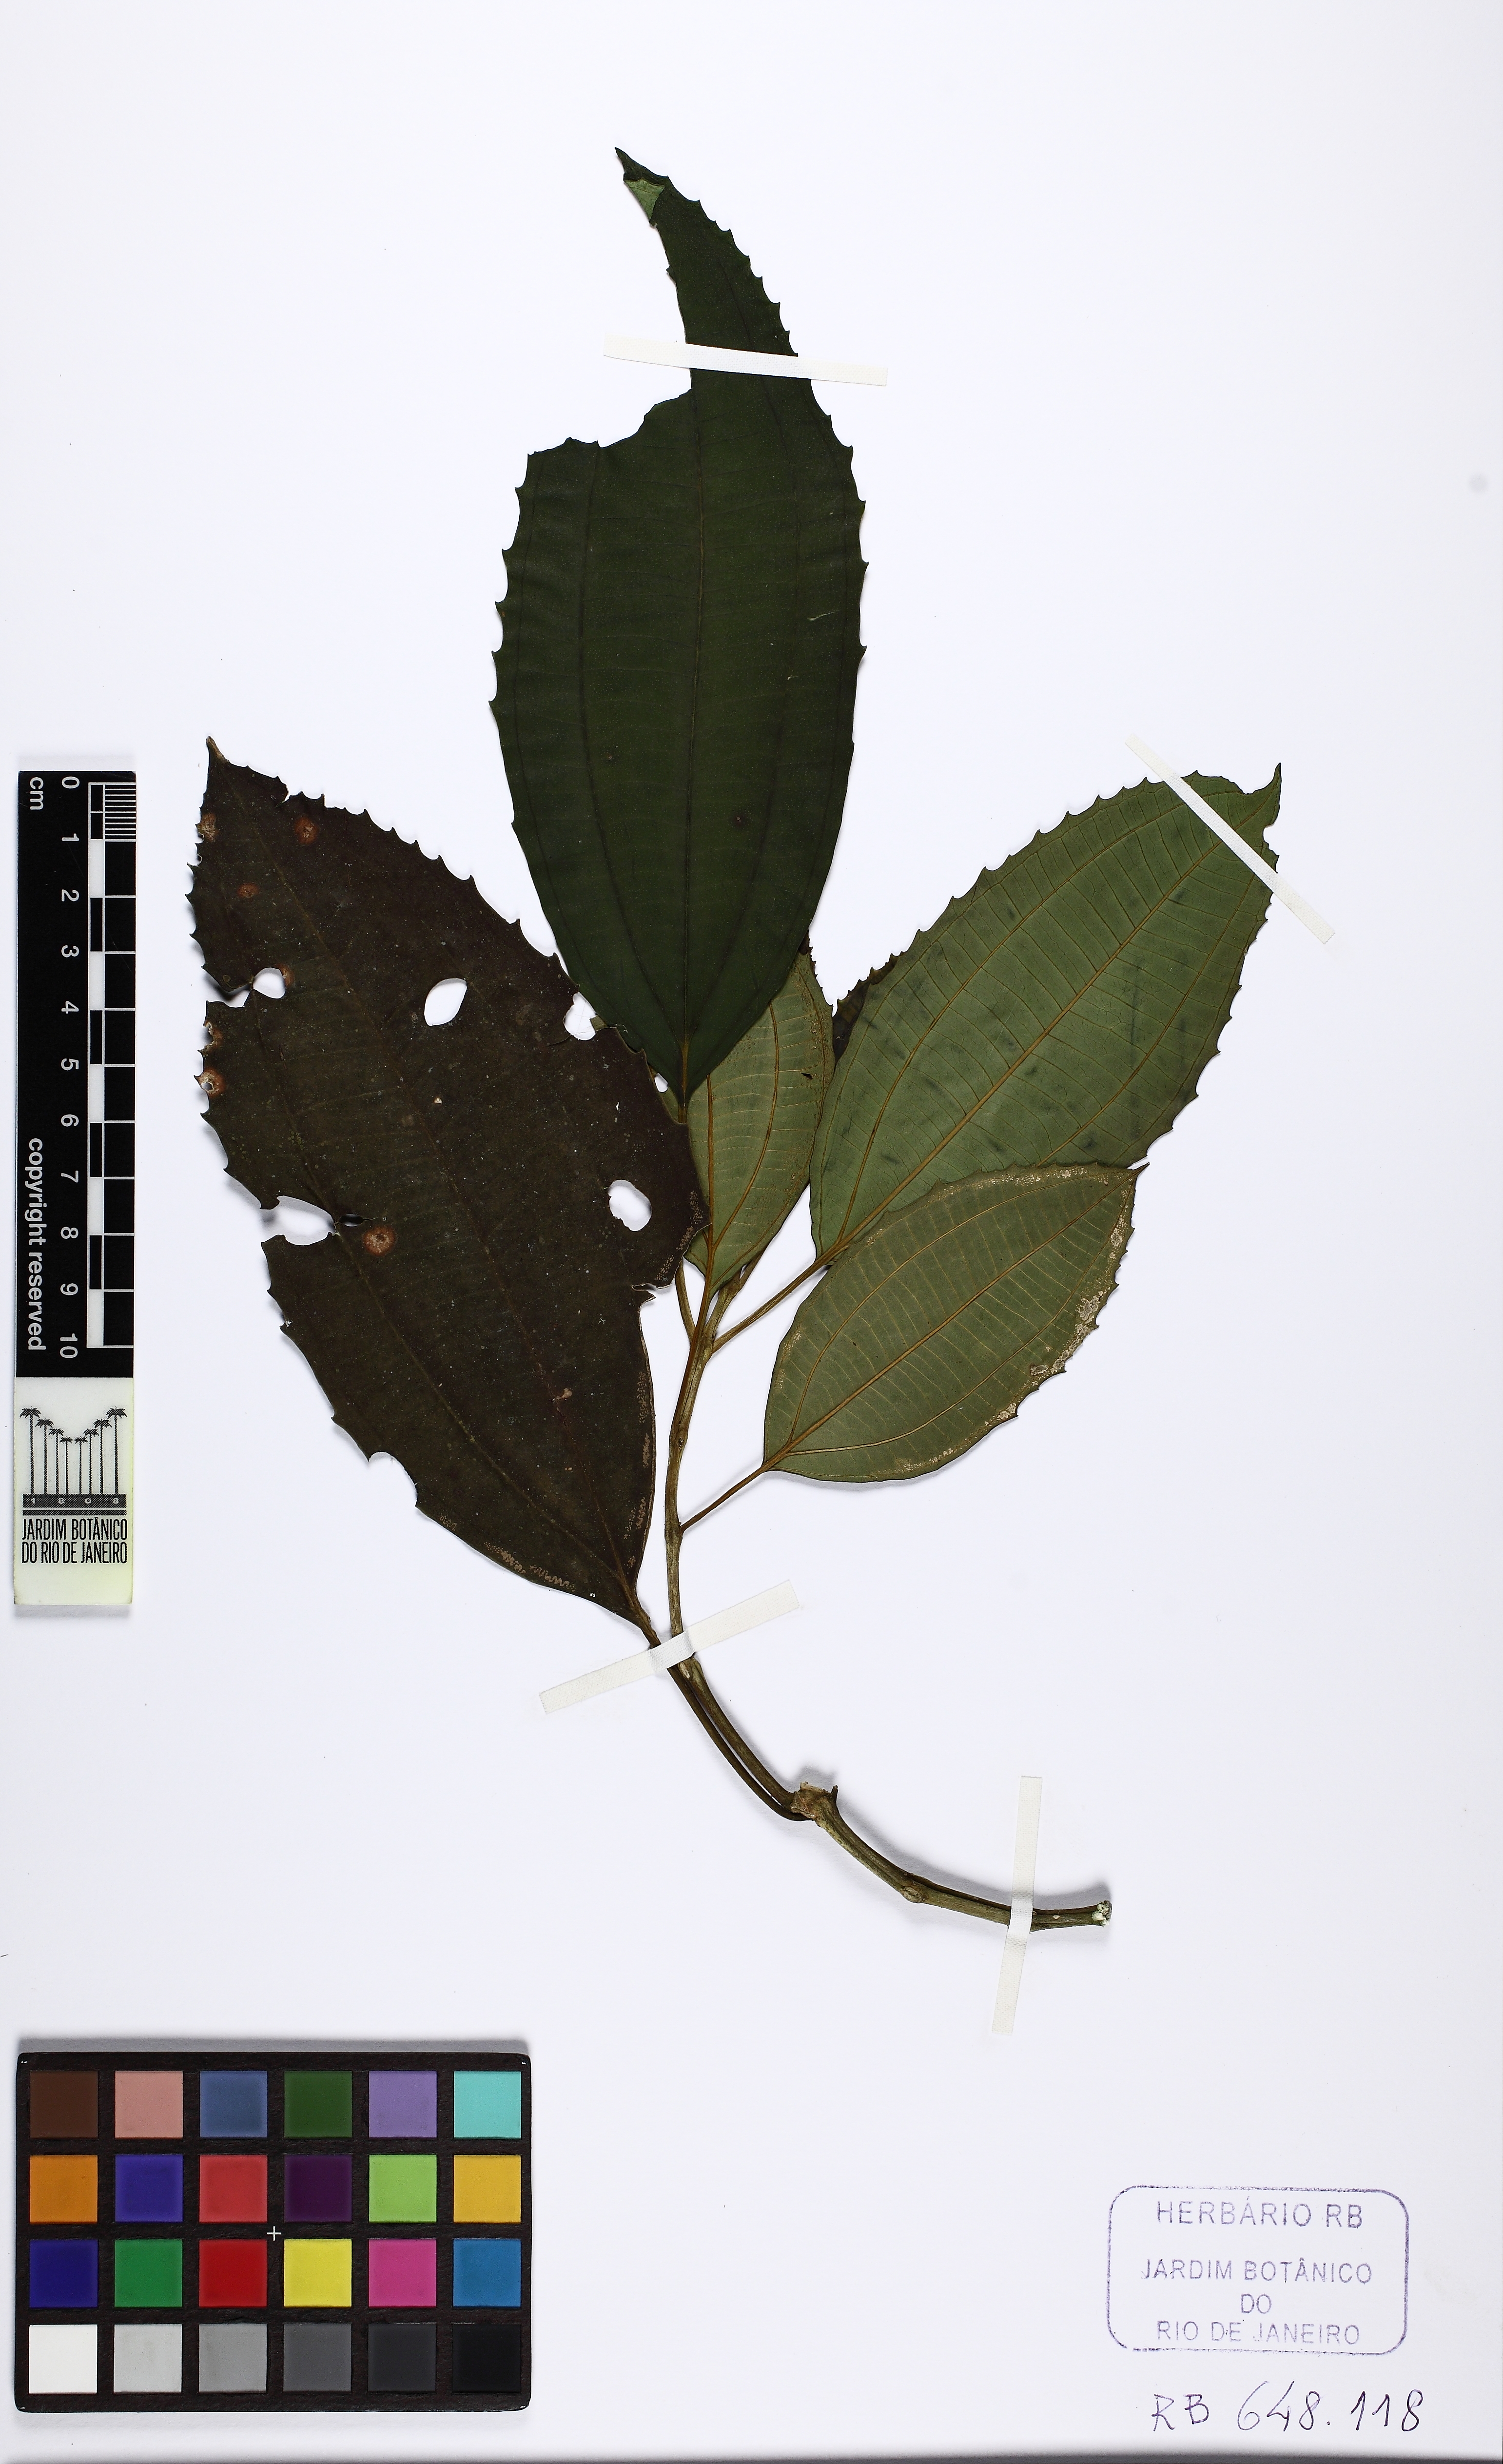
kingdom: Plantae
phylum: Tracheophyta
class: Magnoliopsida
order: Myrtales
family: Melastomataceae
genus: Meriania
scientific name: Meriania claussenii
